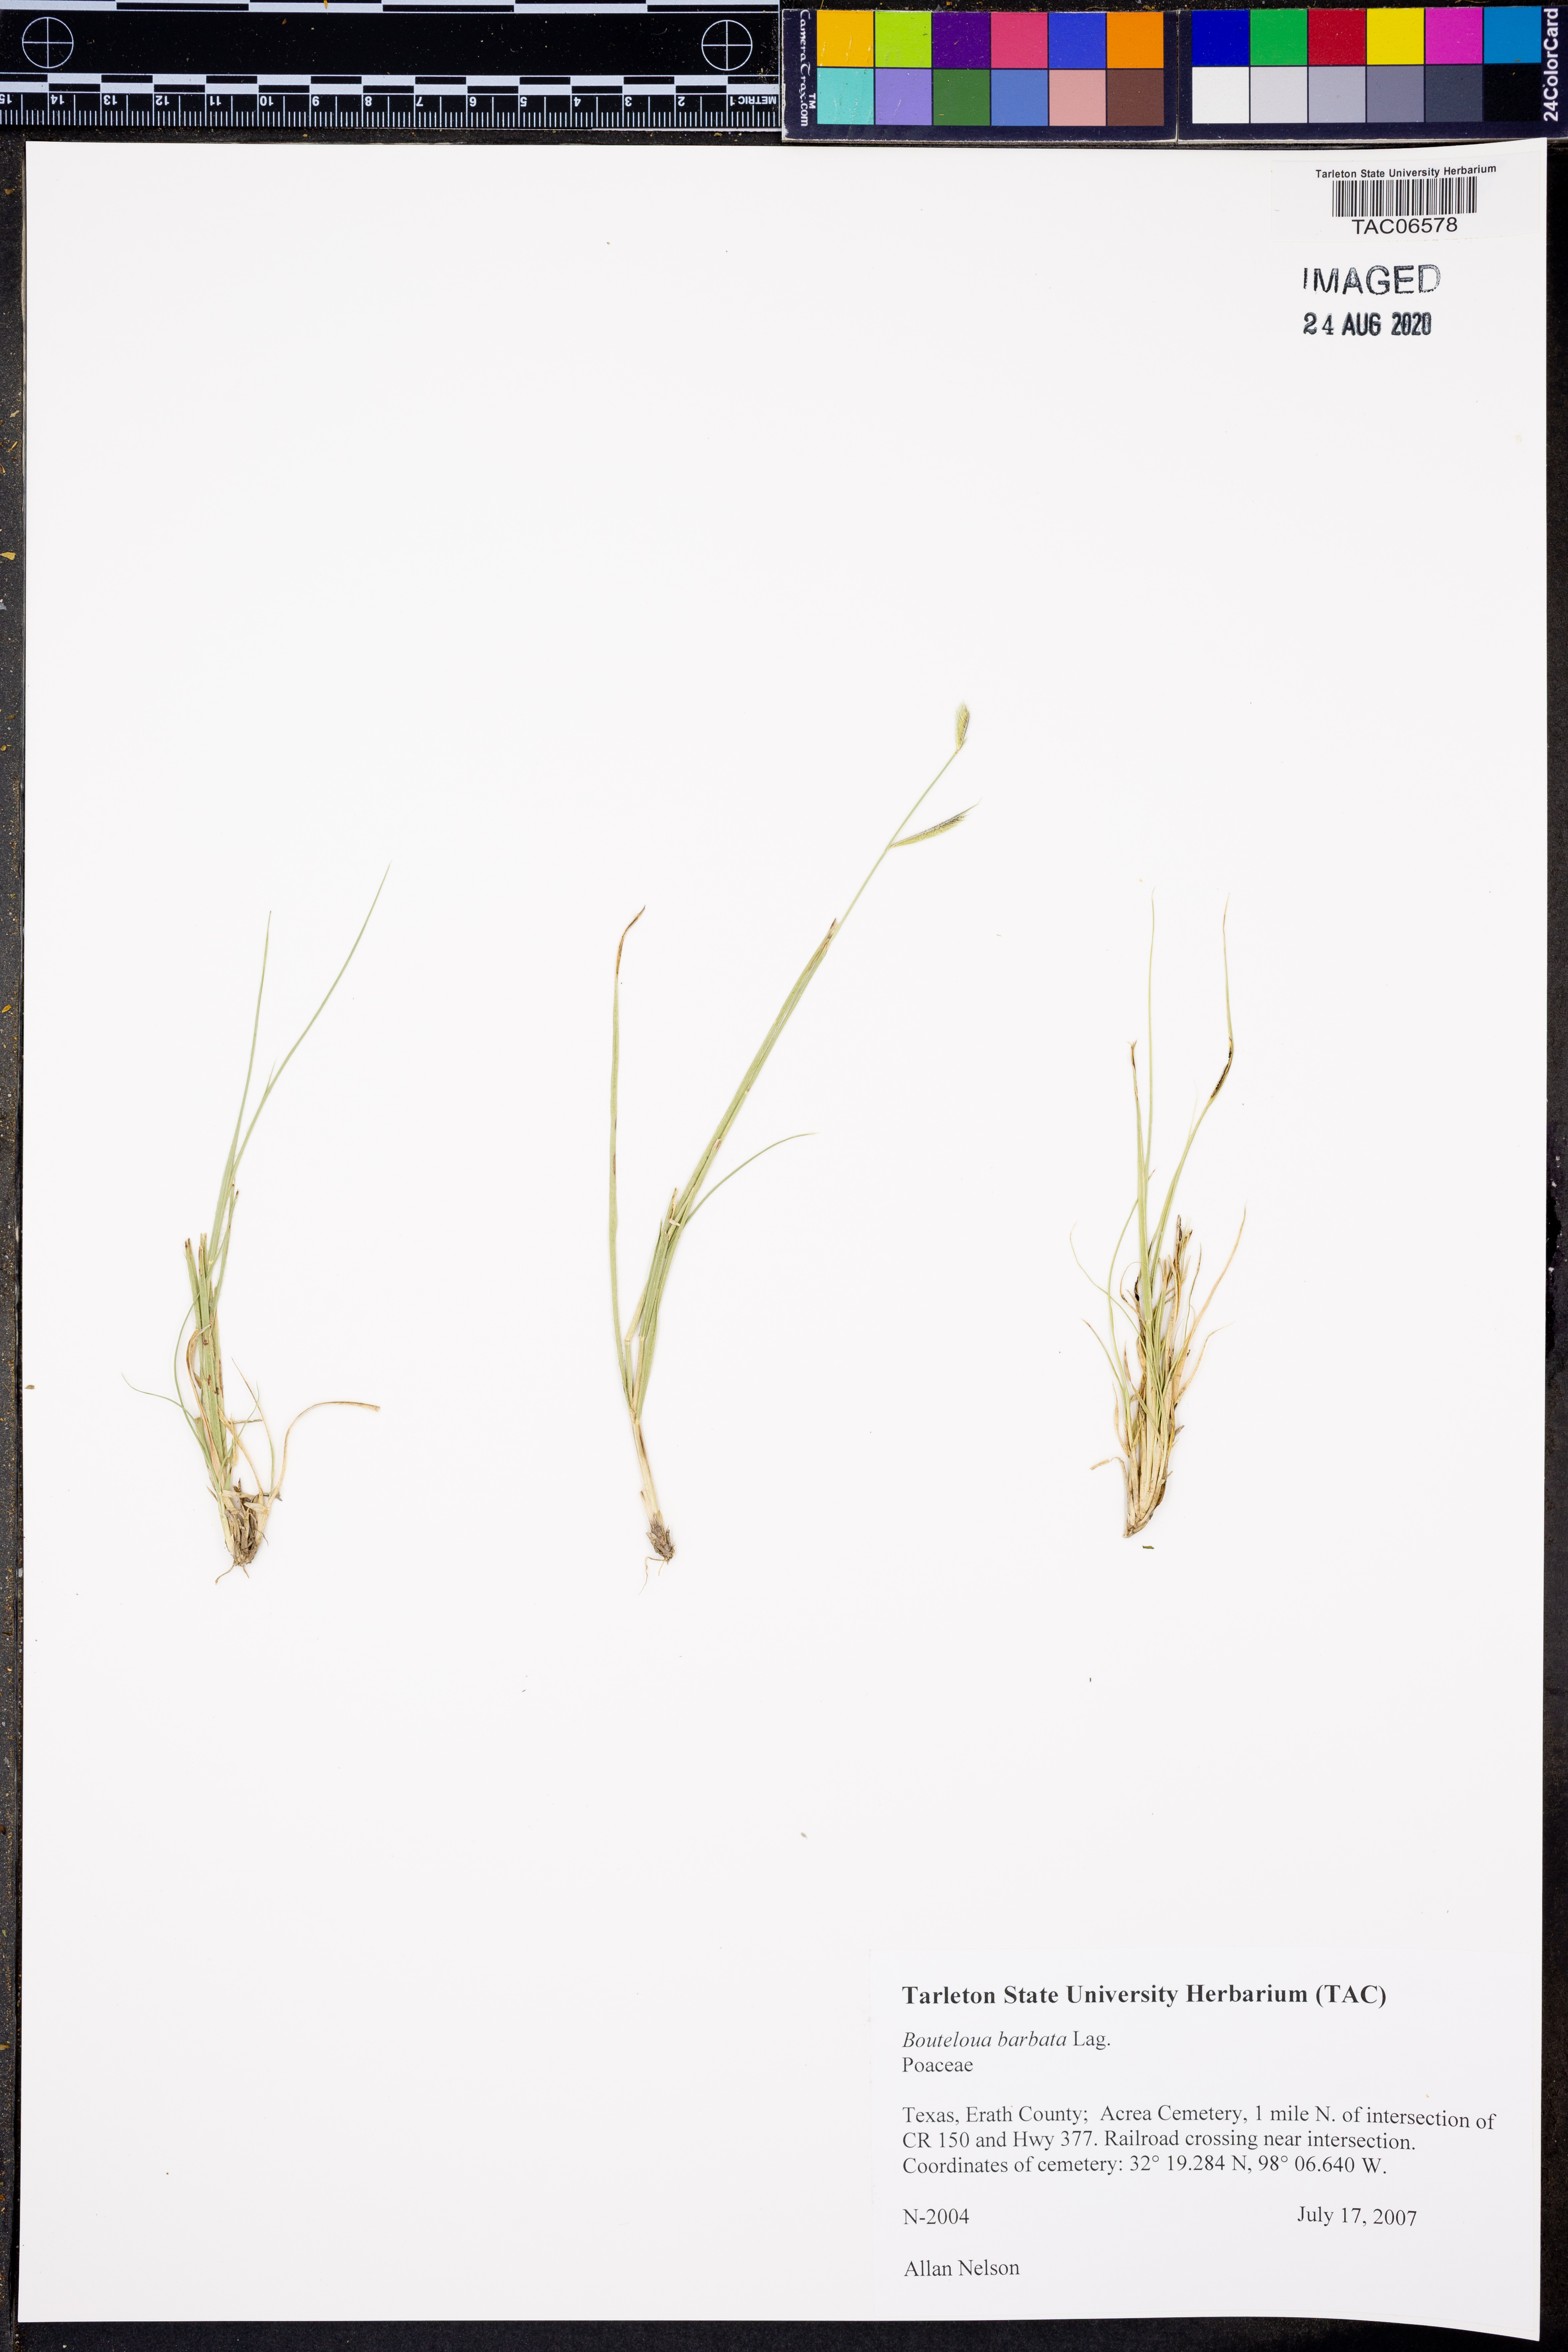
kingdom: Plantae
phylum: Tracheophyta
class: Liliopsida
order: Poales
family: Poaceae
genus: Bouteloua
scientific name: Bouteloua barbata
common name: Six-weeks grama
